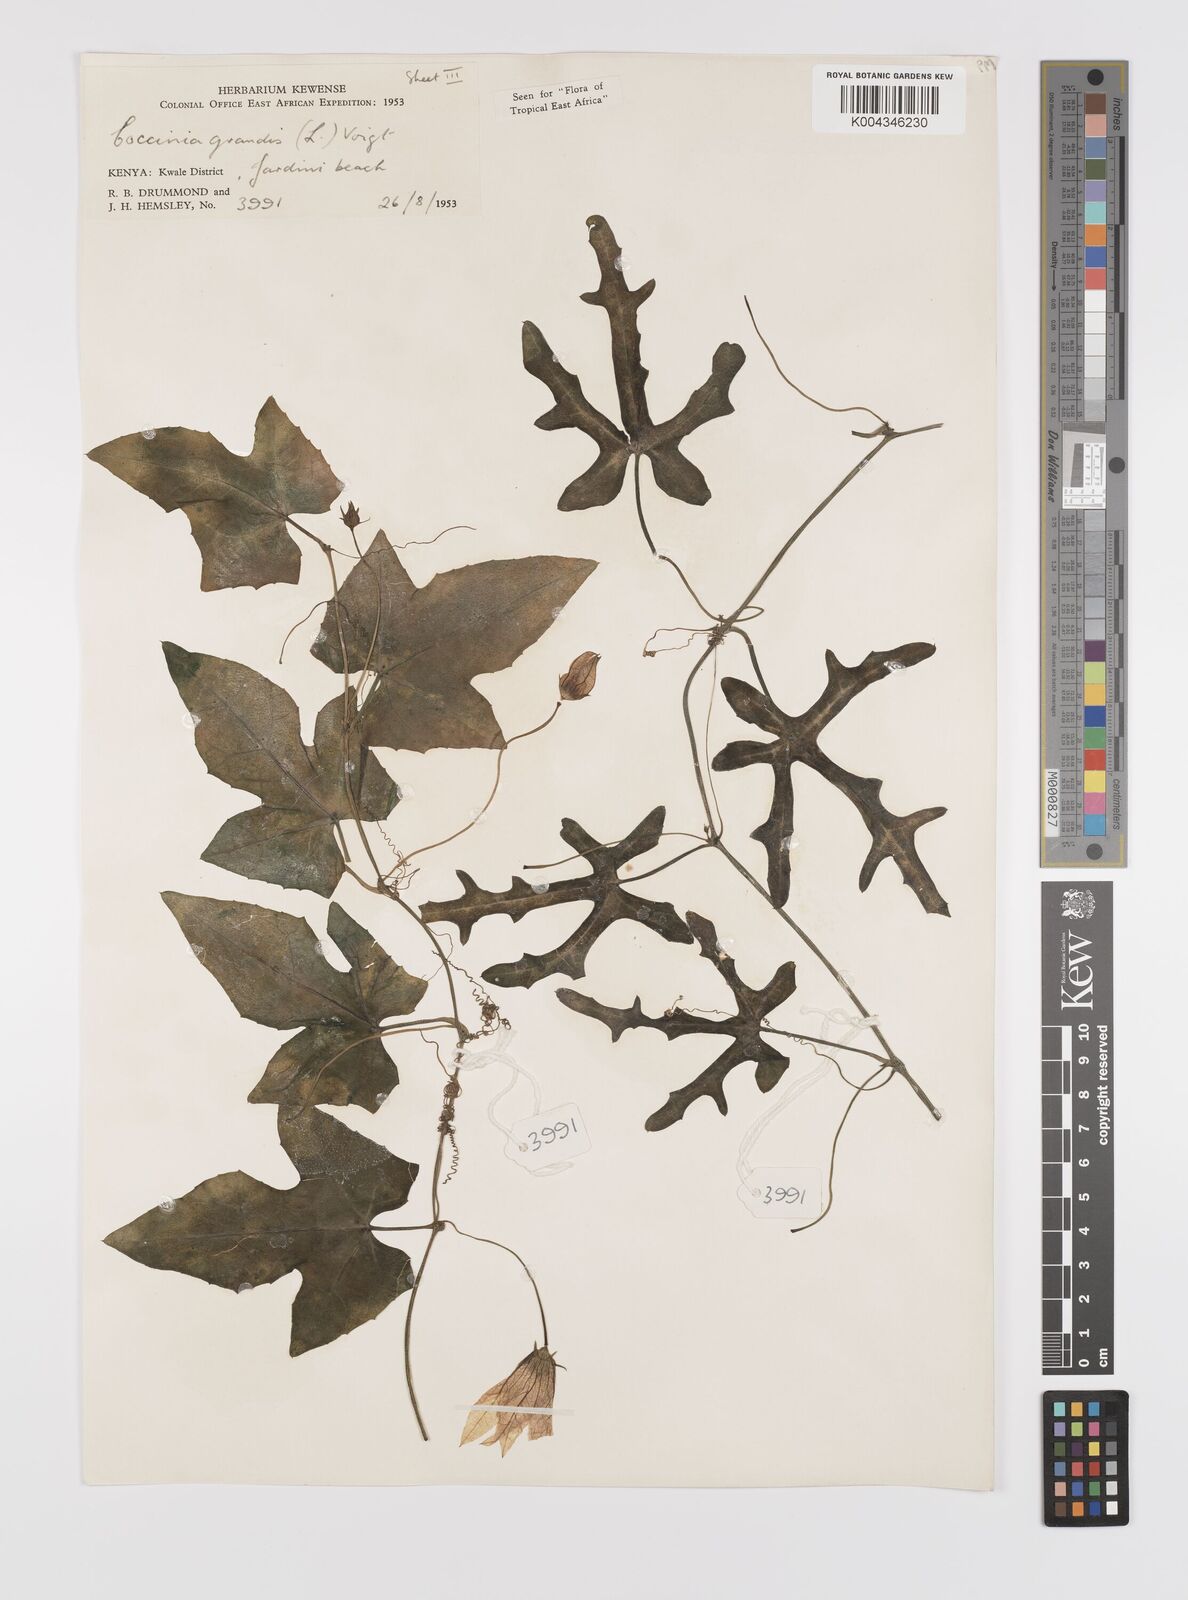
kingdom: Plantae
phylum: Tracheophyta
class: Magnoliopsida
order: Cucurbitales
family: Cucurbitaceae
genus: Coccinia
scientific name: Coccinia grandis
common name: Ivy gourd
